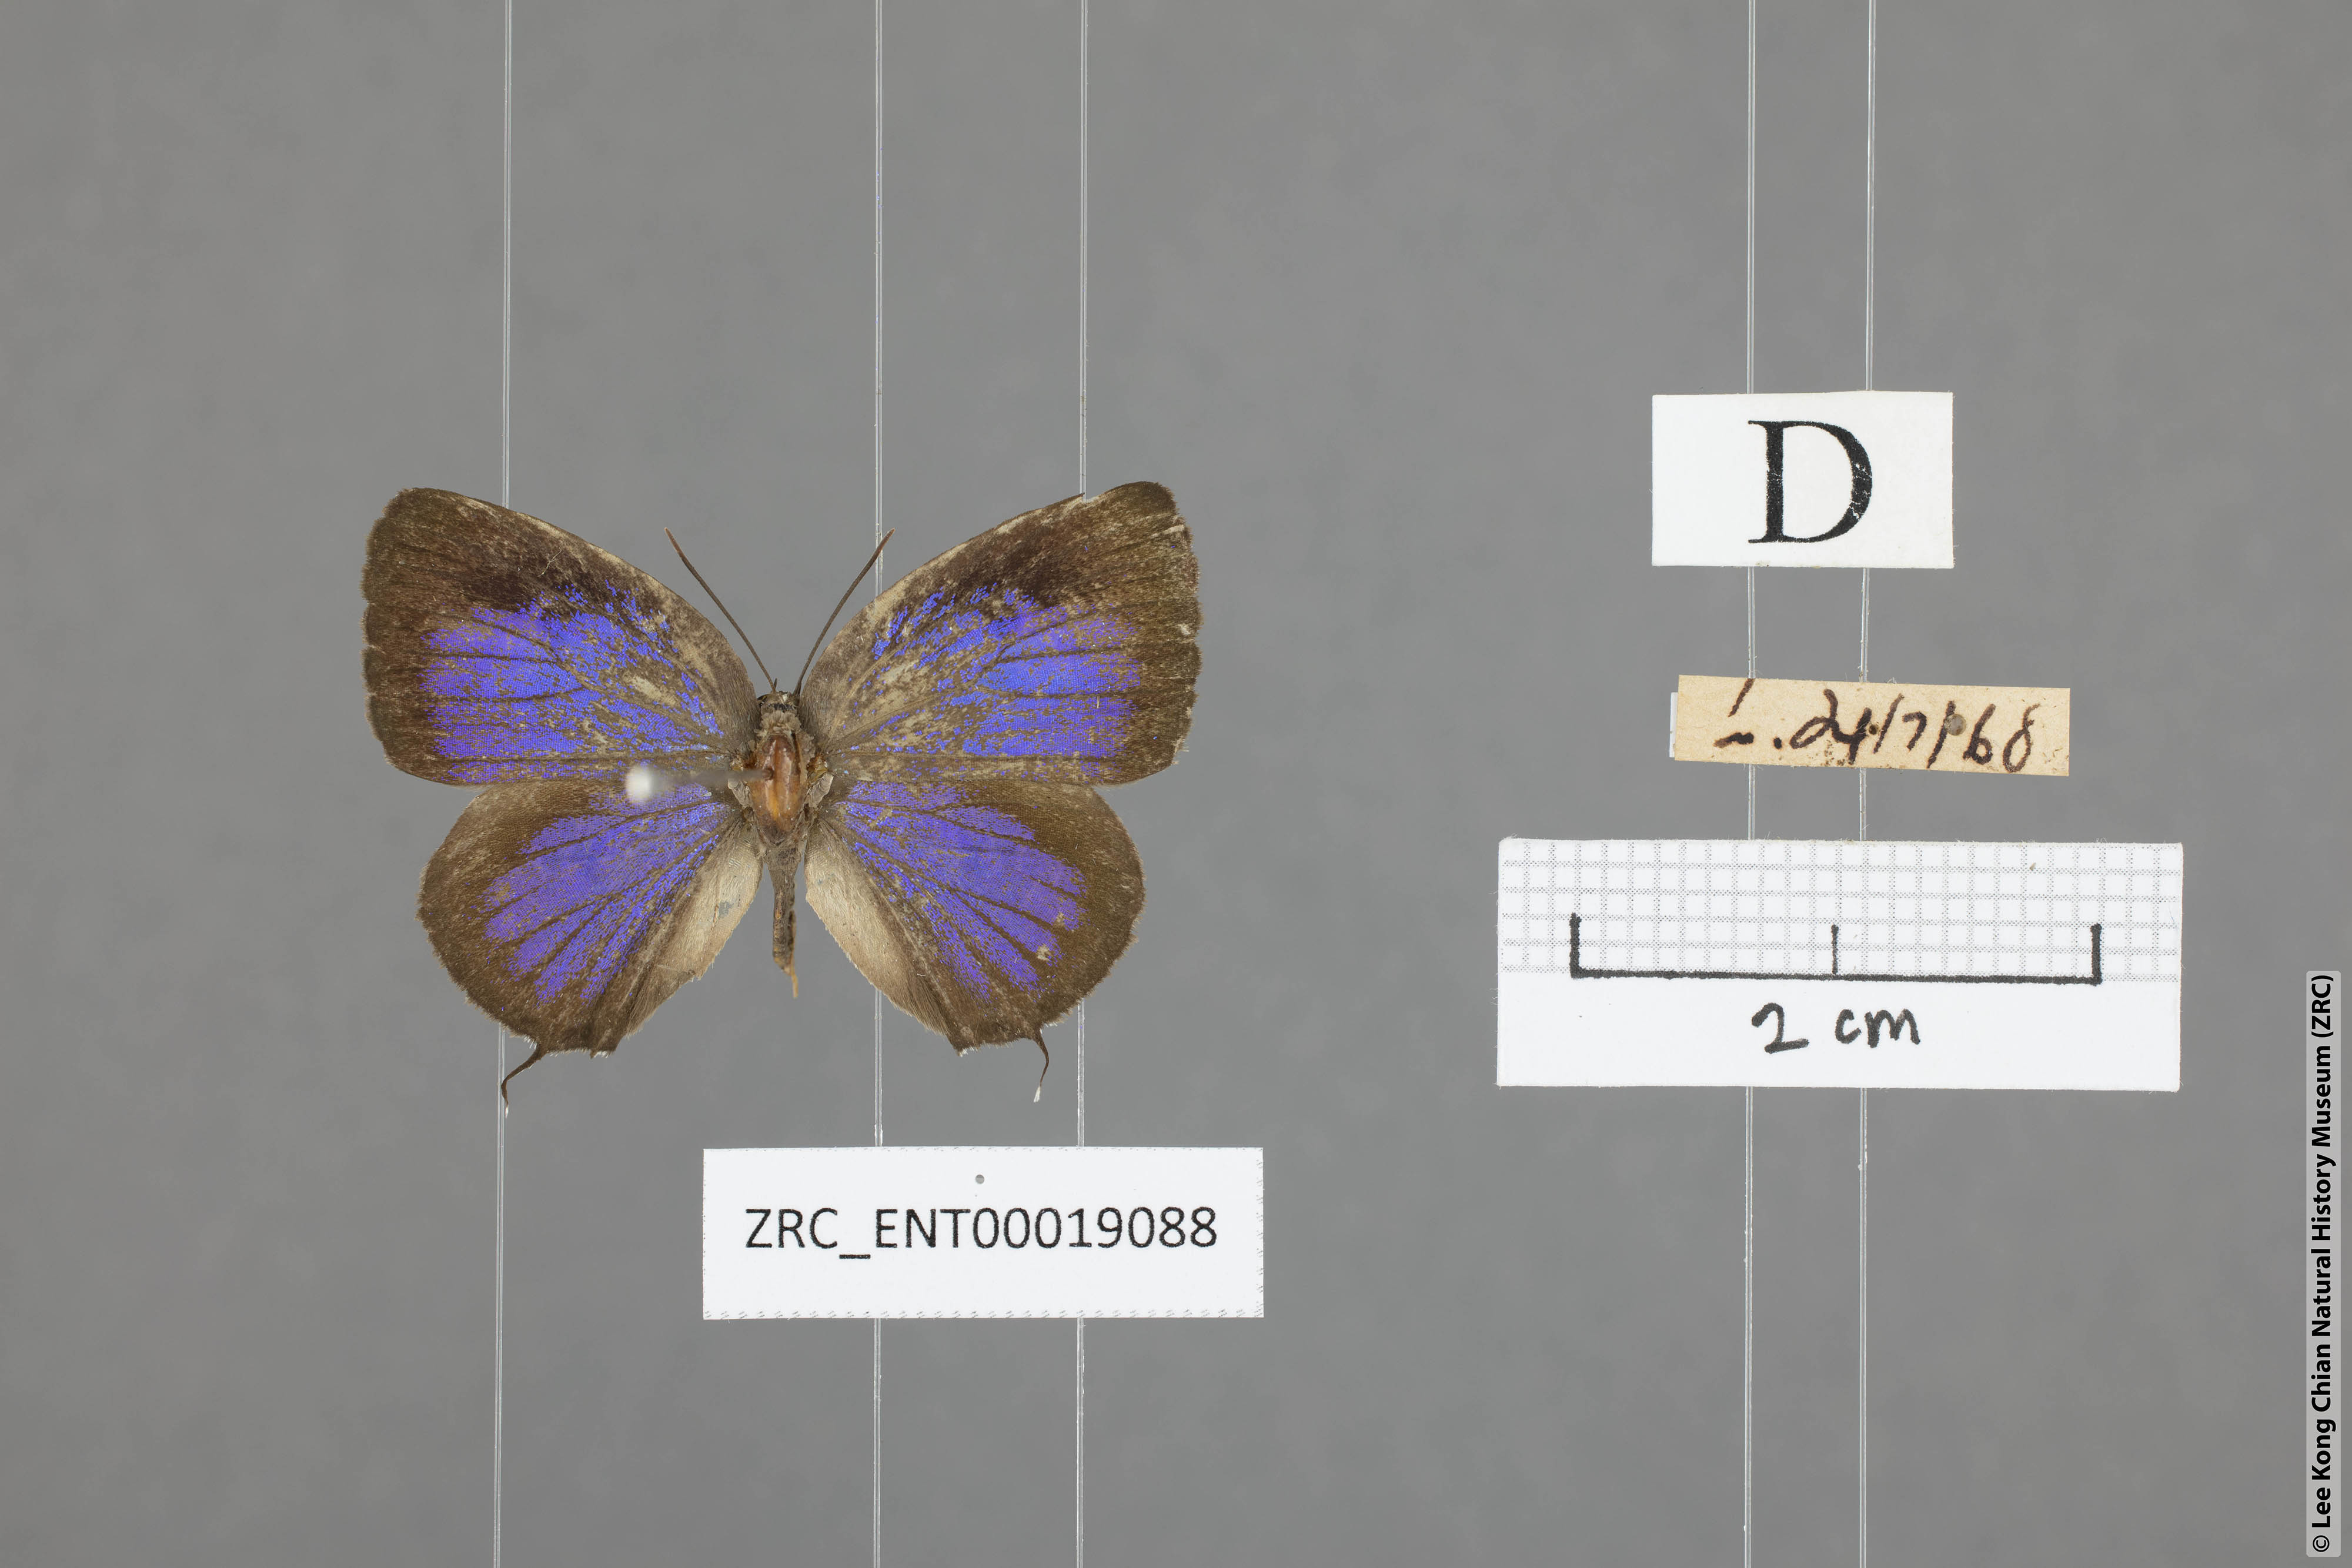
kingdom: Animalia
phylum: Arthropoda
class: Insecta
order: Lepidoptera
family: Lycaenidae
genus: Arhopala
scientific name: Arhopala alitaeus
